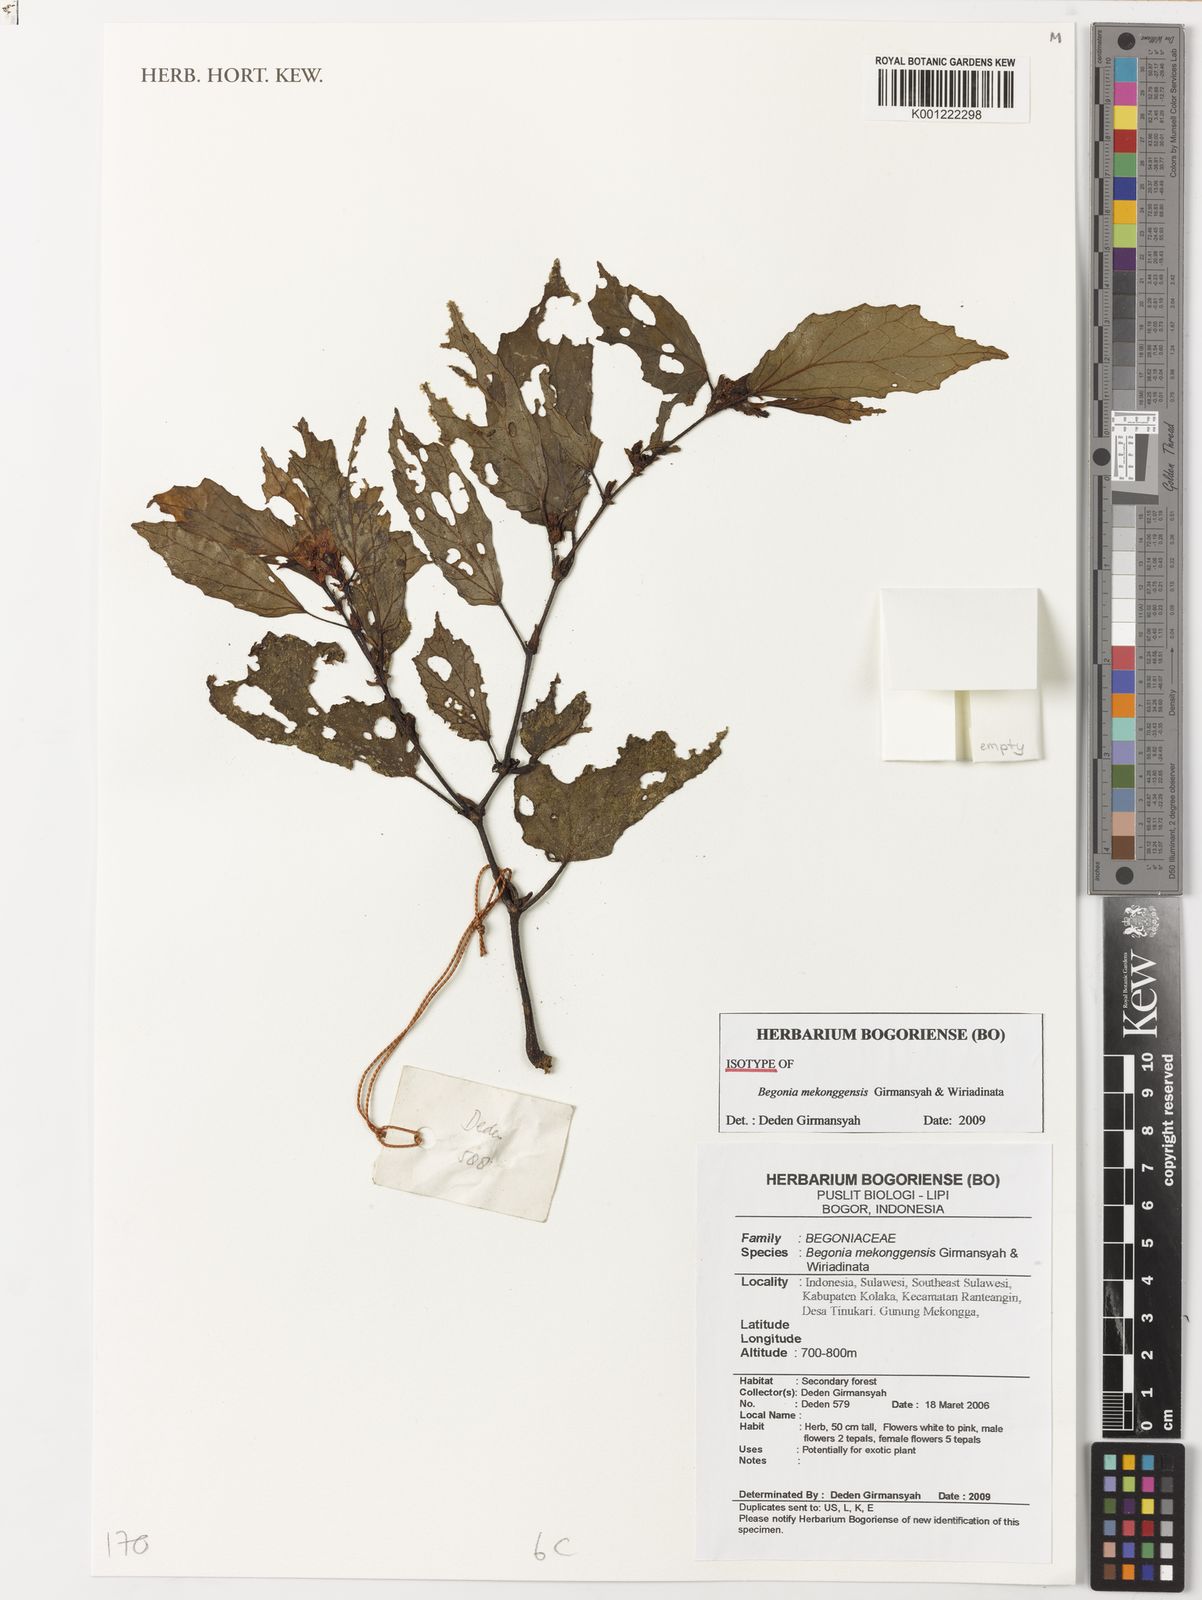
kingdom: Plantae
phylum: Tracheophyta
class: Magnoliopsida
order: Cucurbitales
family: Begoniaceae
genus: Begonia
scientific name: Begonia mekonggensis
